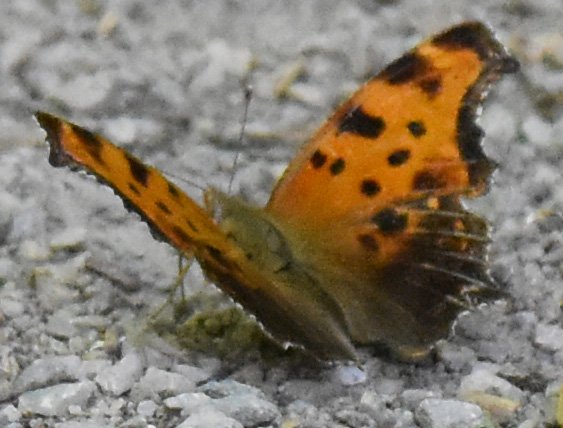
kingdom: Animalia
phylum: Arthropoda
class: Insecta
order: Lepidoptera
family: Nymphalidae
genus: Polygonia
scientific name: Polygonia comma
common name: Eastern Comma
